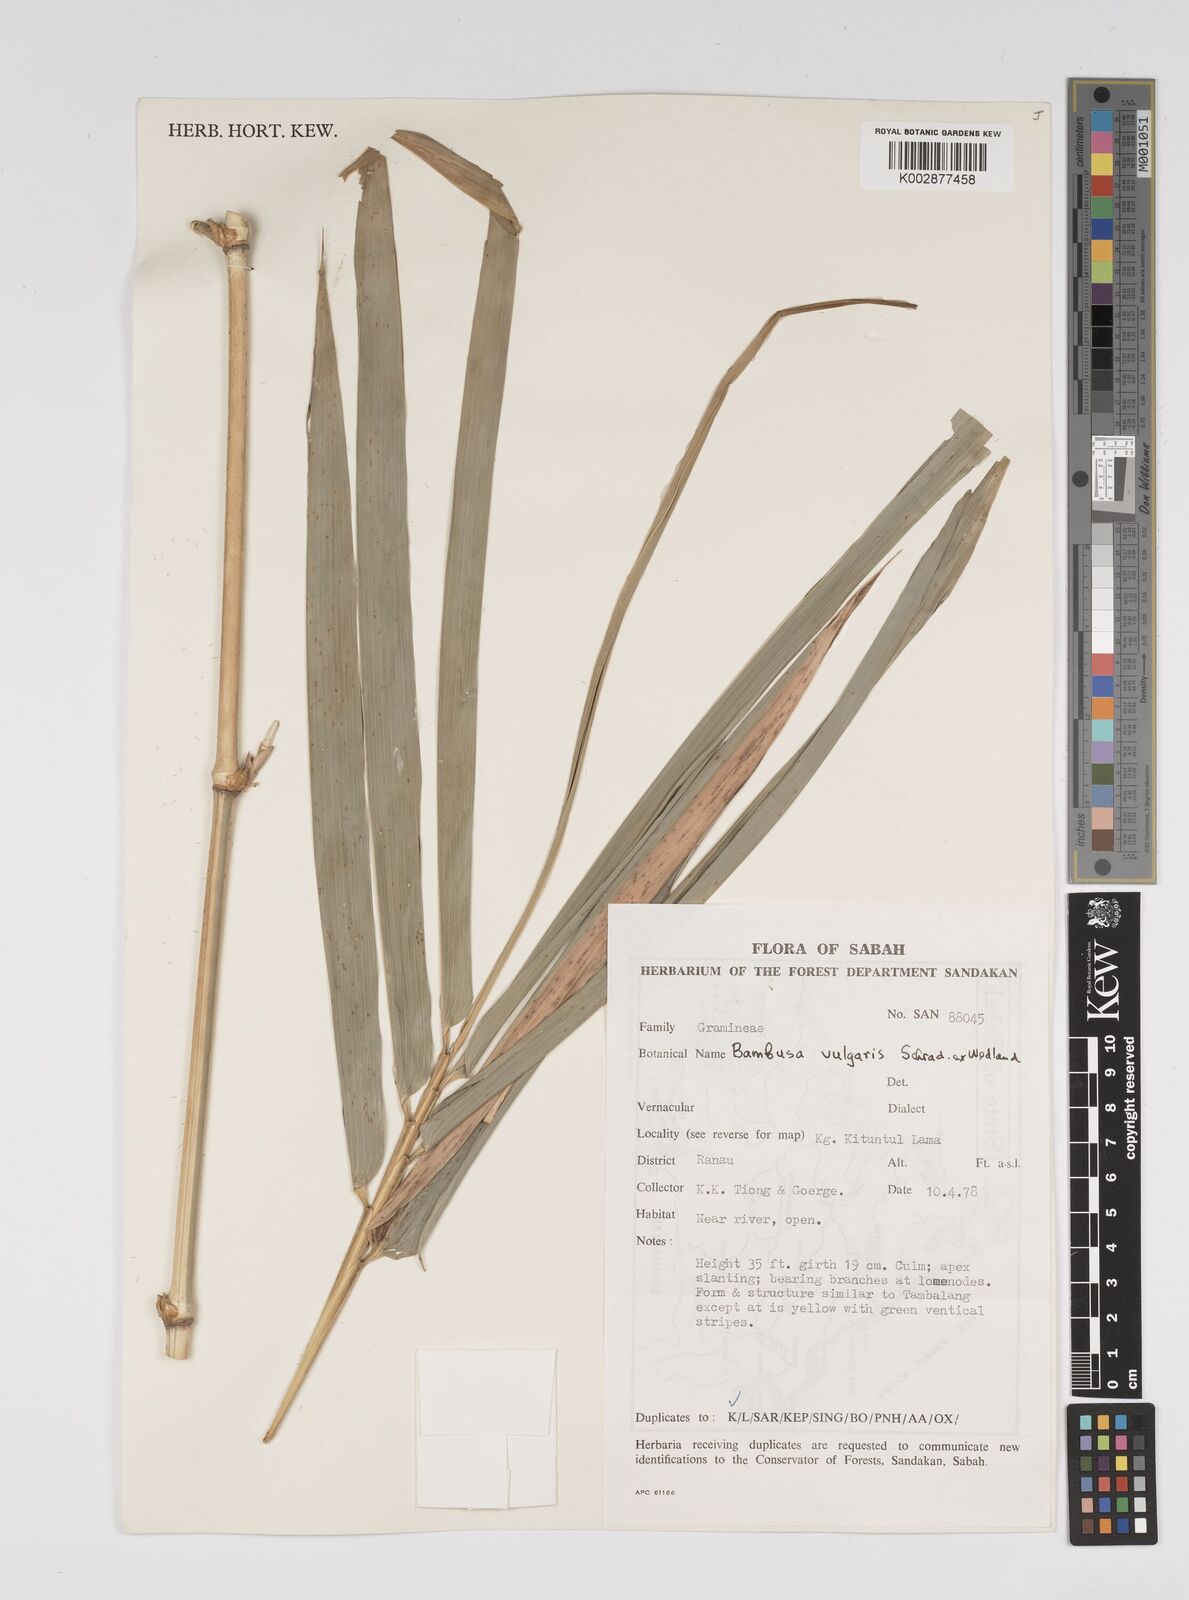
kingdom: Plantae
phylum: Tracheophyta
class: Liliopsida
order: Poales
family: Poaceae
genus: Bambusa
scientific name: Bambusa vulgaris
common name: Common bamboo
